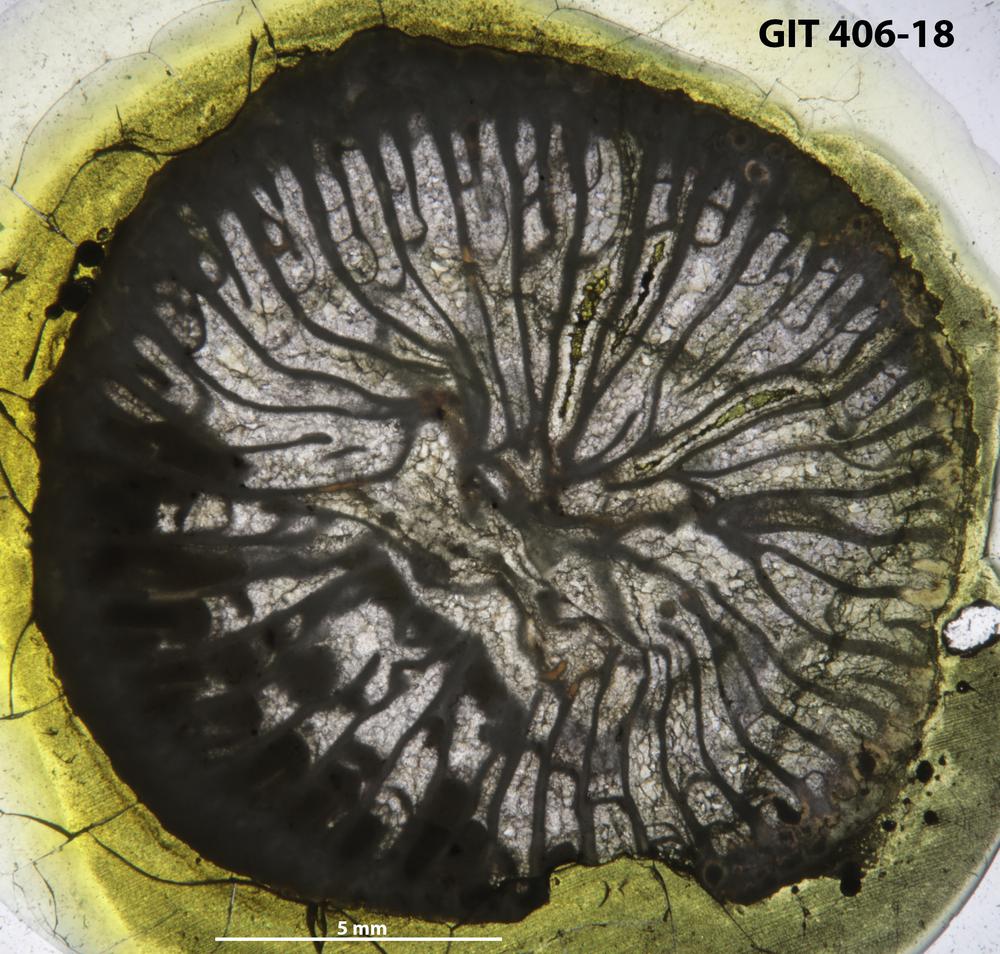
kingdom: Animalia
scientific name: Animalia
